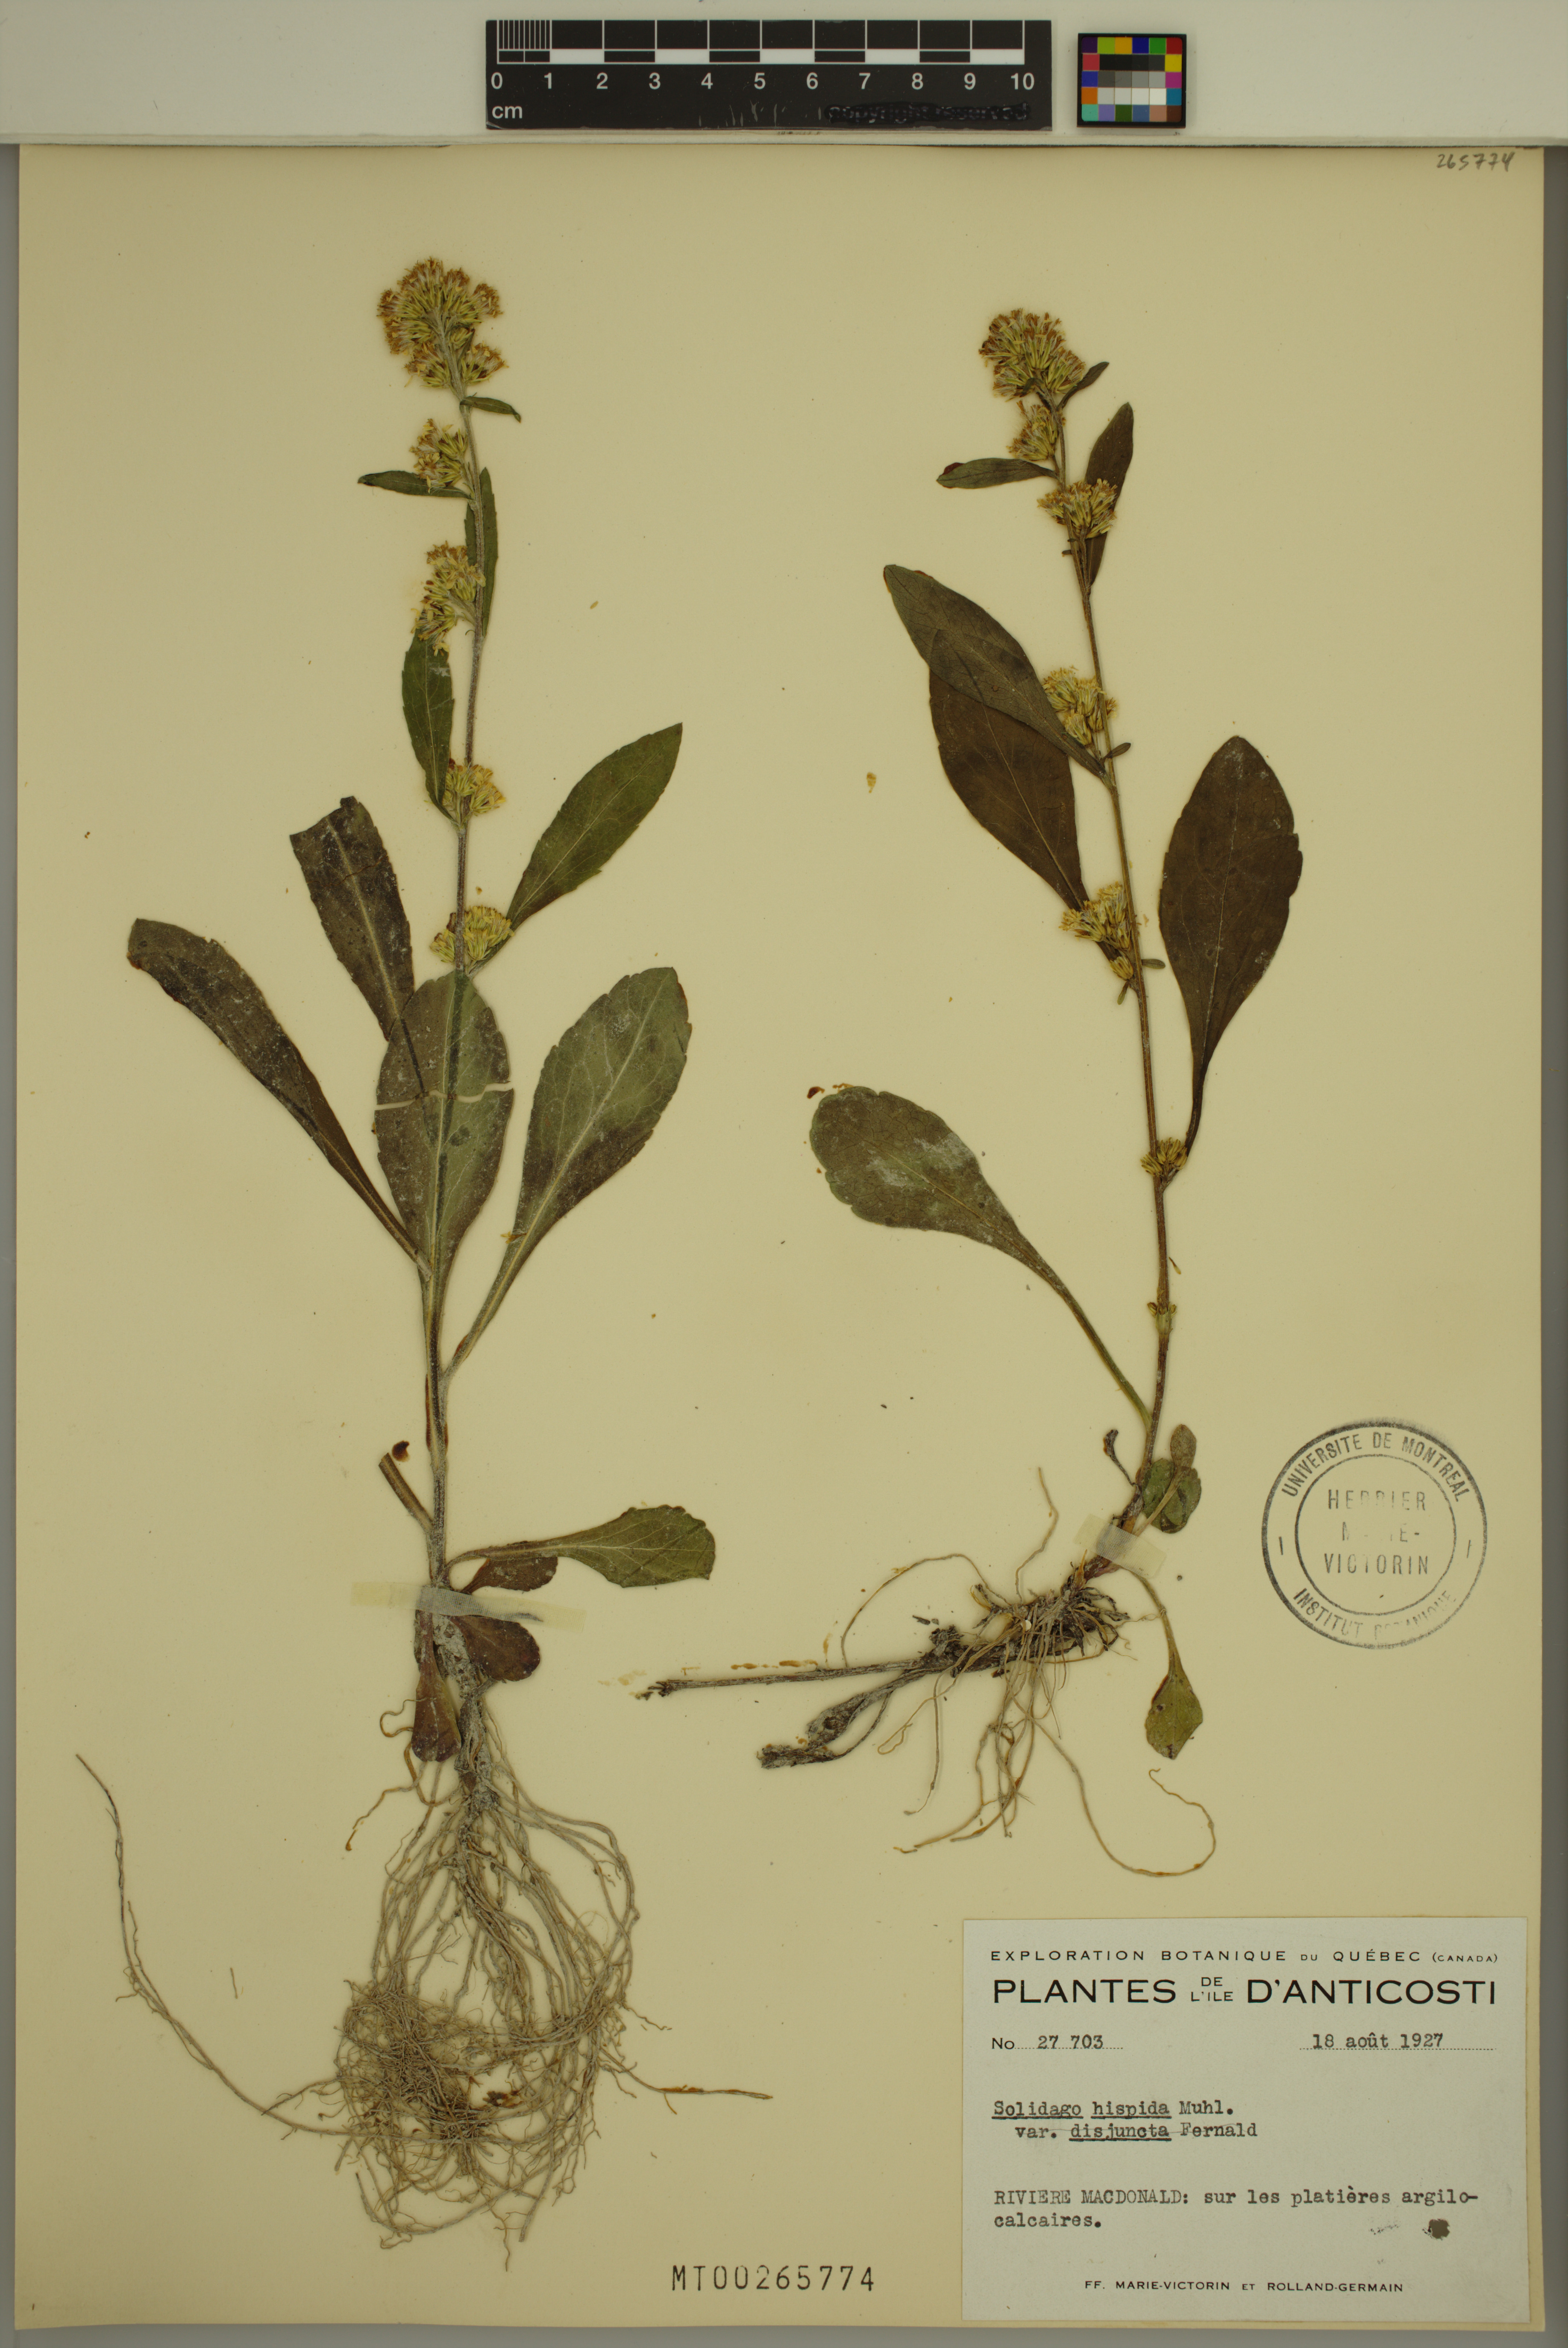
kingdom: Plantae
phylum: Tracheophyta
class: Magnoliopsida
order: Asterales
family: Asteraceae
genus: Solidago
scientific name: Solidago hispida
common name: Hairy goldenrod
